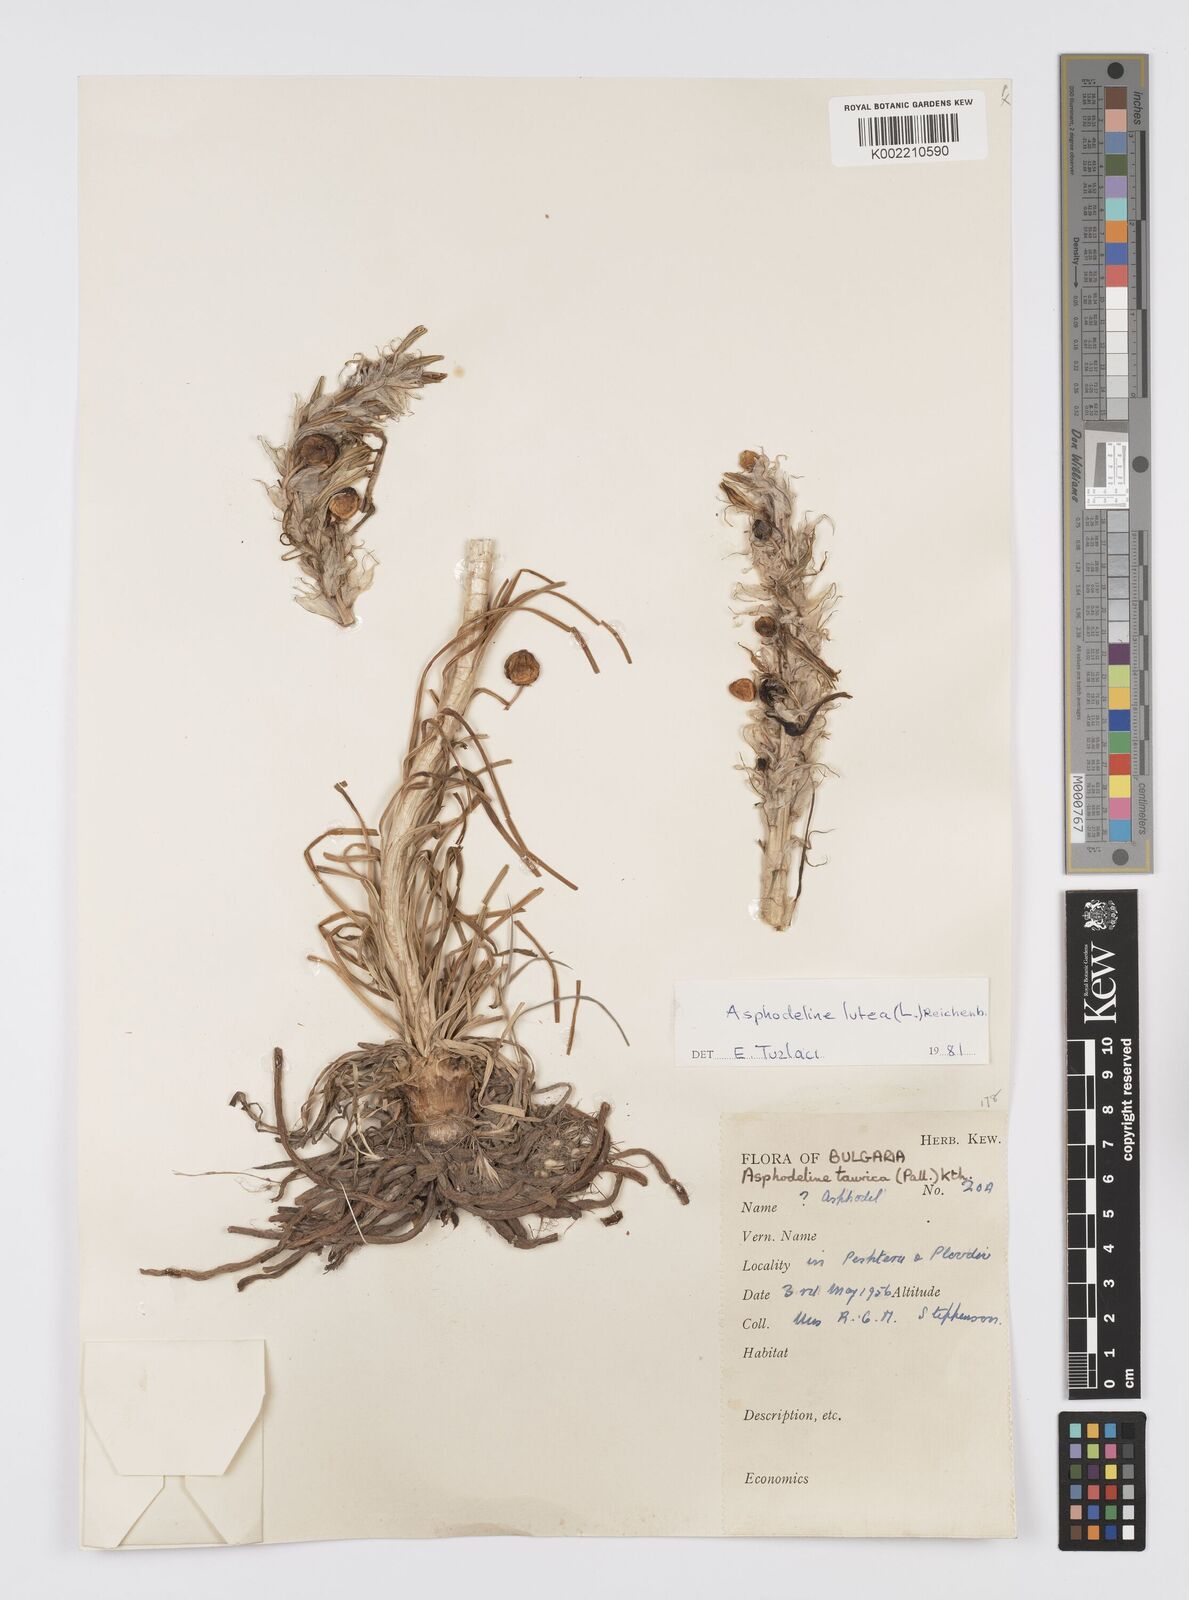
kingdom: Plantae
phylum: Tracheophyta
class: Liliopsida
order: Asparagales
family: Asphodelaceae
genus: Asphodeline
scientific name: Asphodeline taurica
